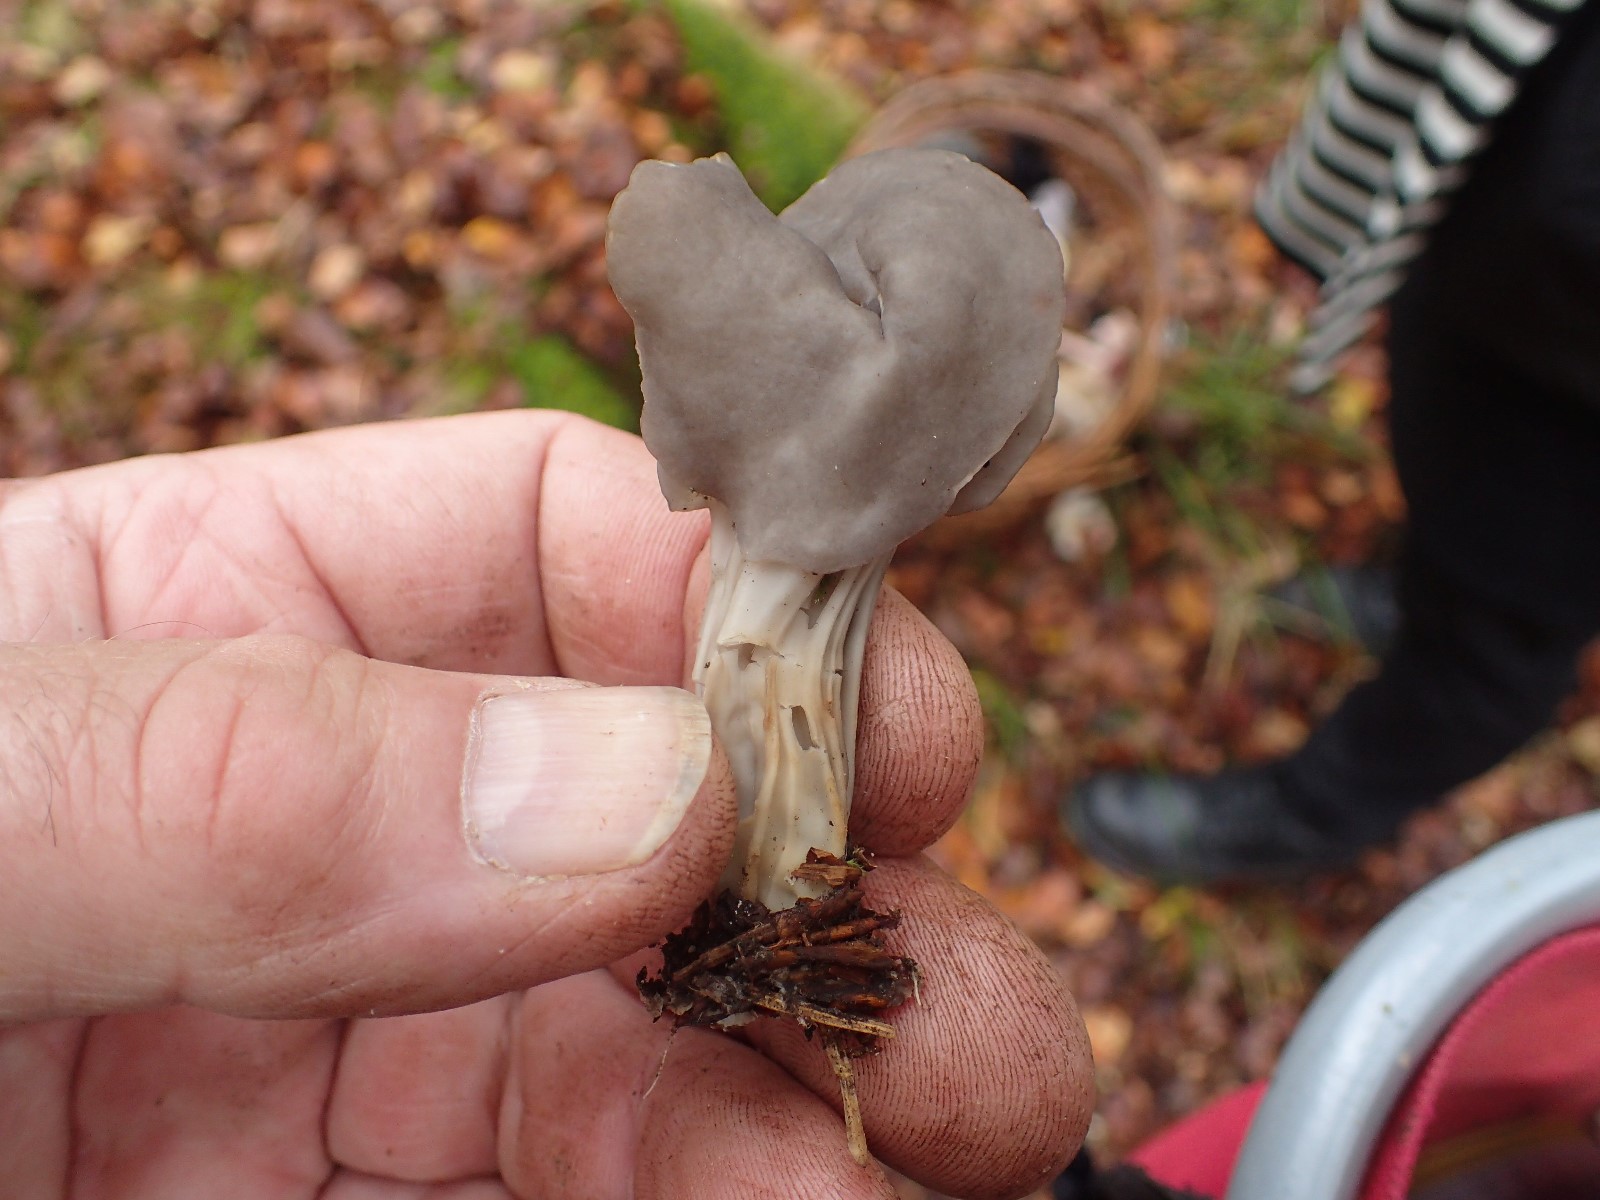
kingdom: Fungi
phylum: Ascomycota
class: Pezizomycetes
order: Pezizales
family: Helvellaceae
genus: Helvella
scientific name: Helvella lacunosa
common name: grubet foldhat
